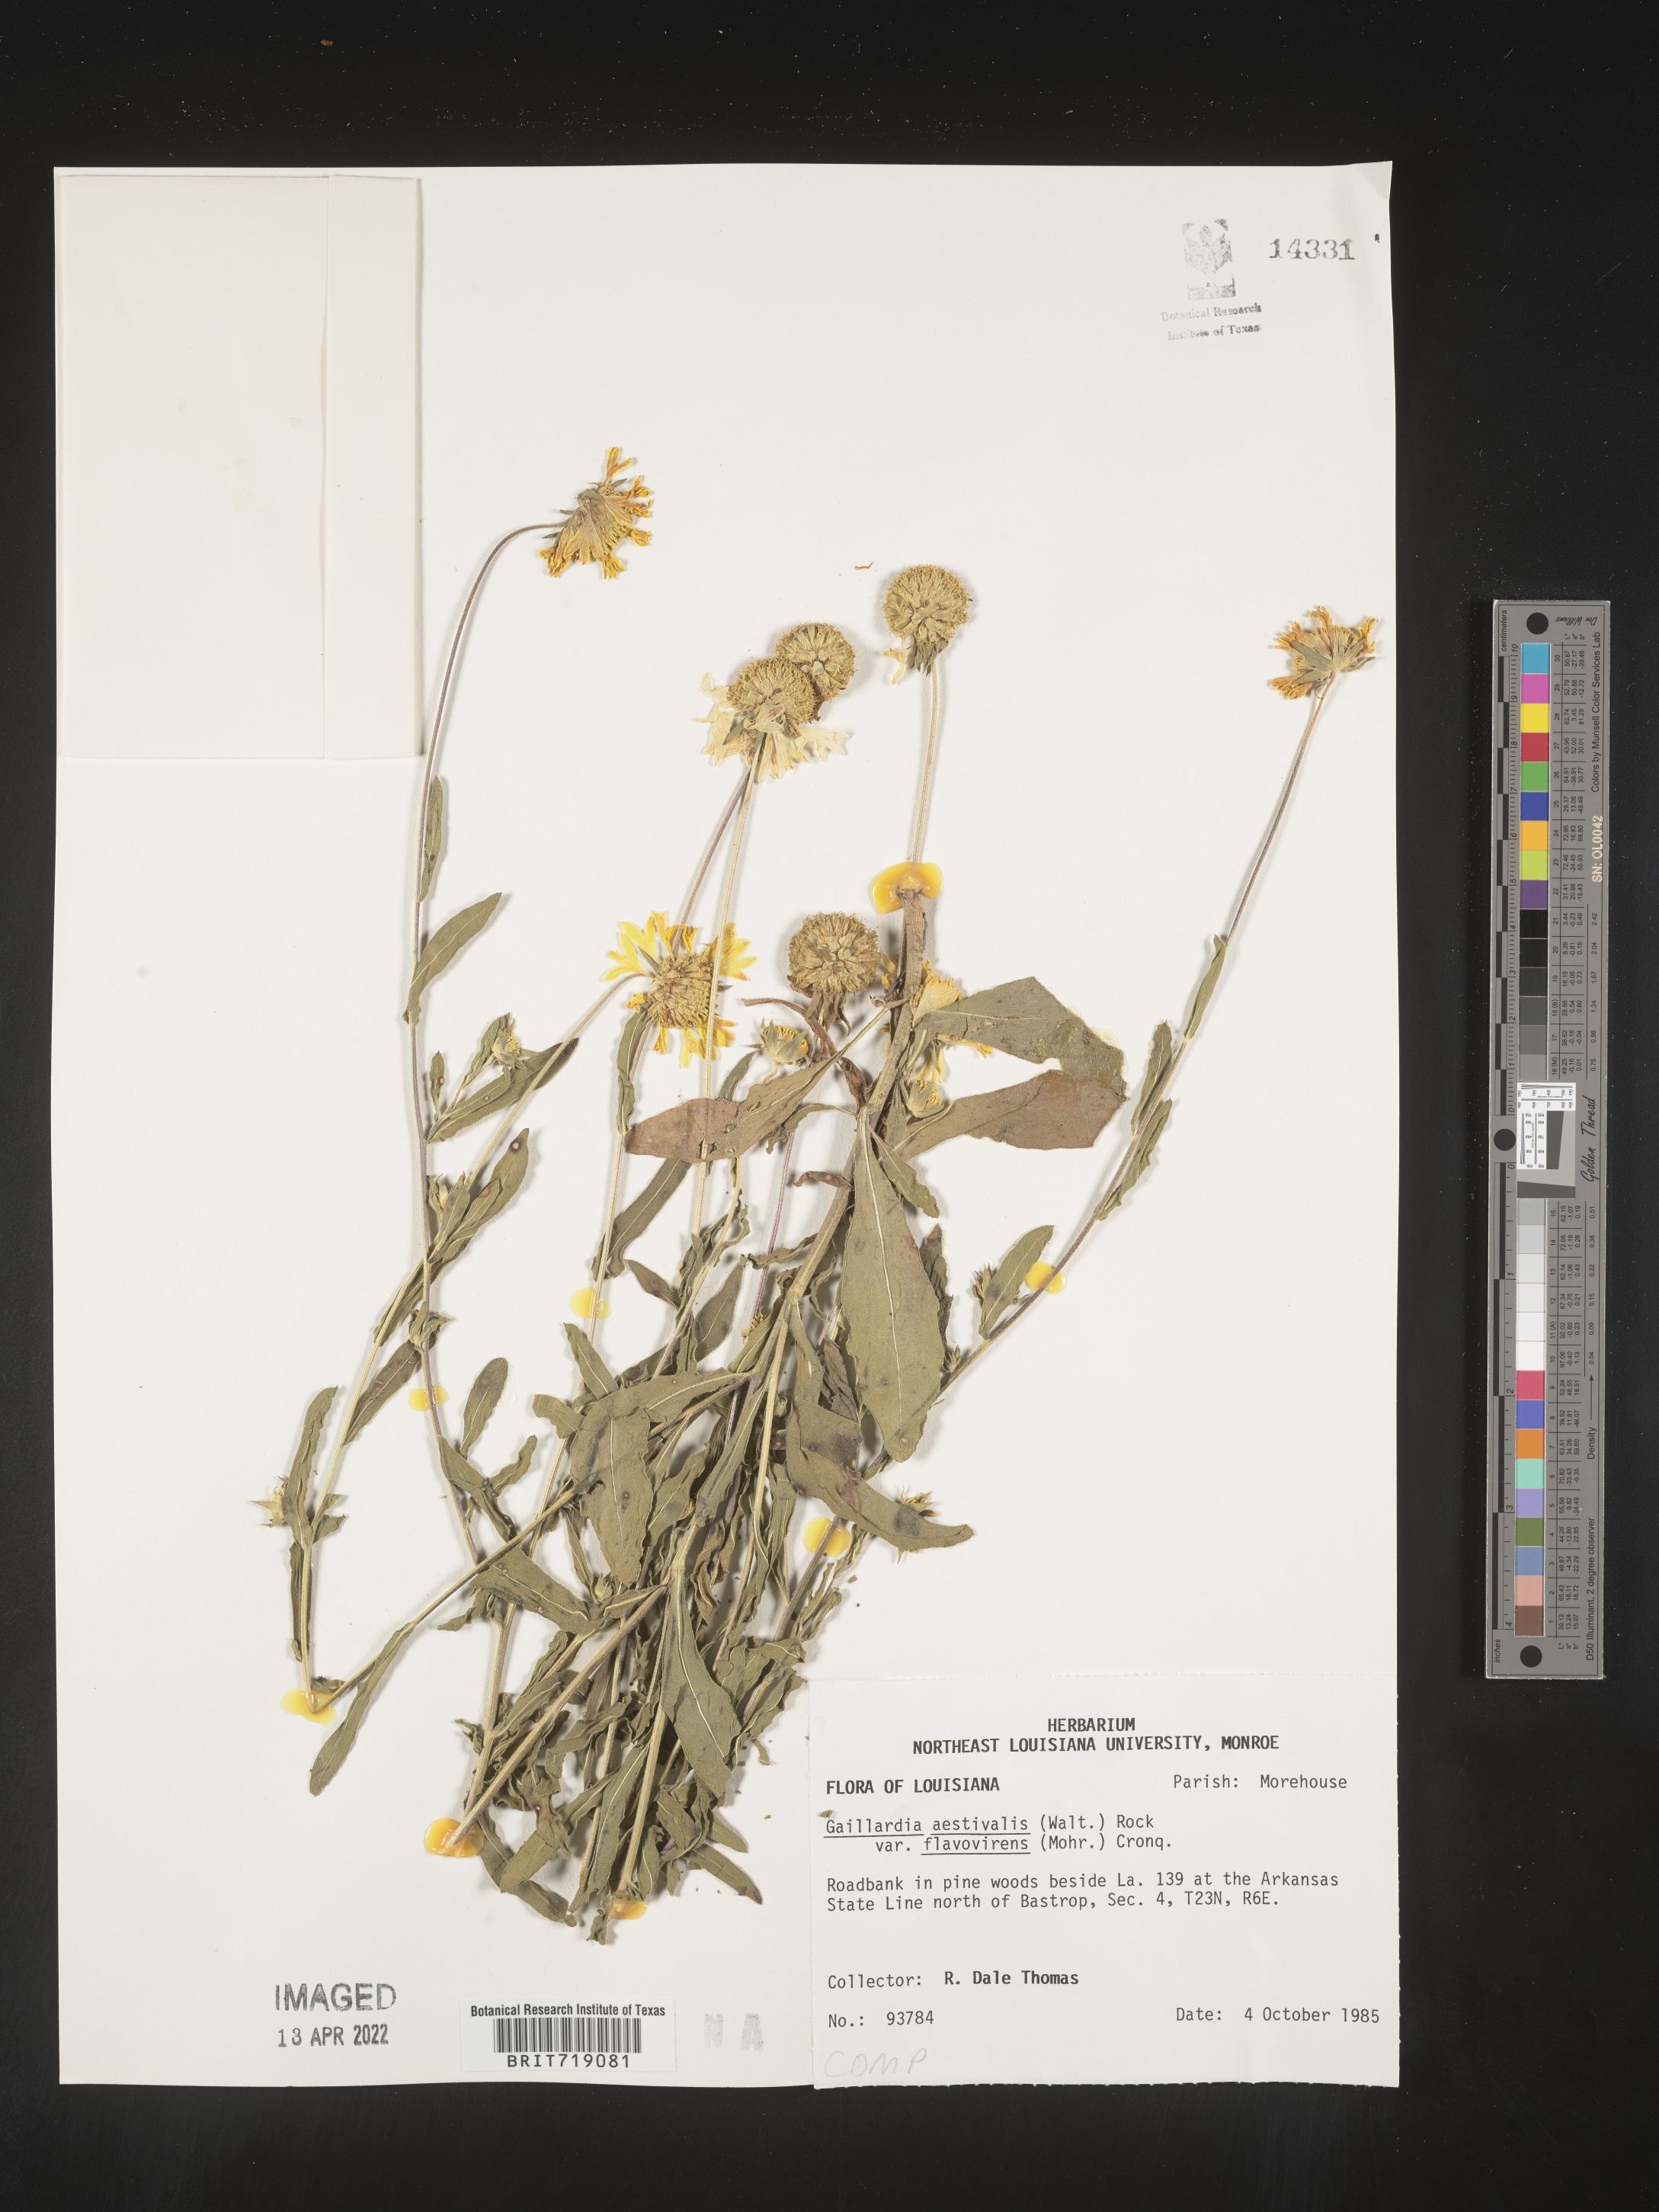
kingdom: Plantae
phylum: Tracheophyta
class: Magnoliopsida
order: Asterales
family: Asteraceae
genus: Gaillardia
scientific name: Gaillardia aestivalis
